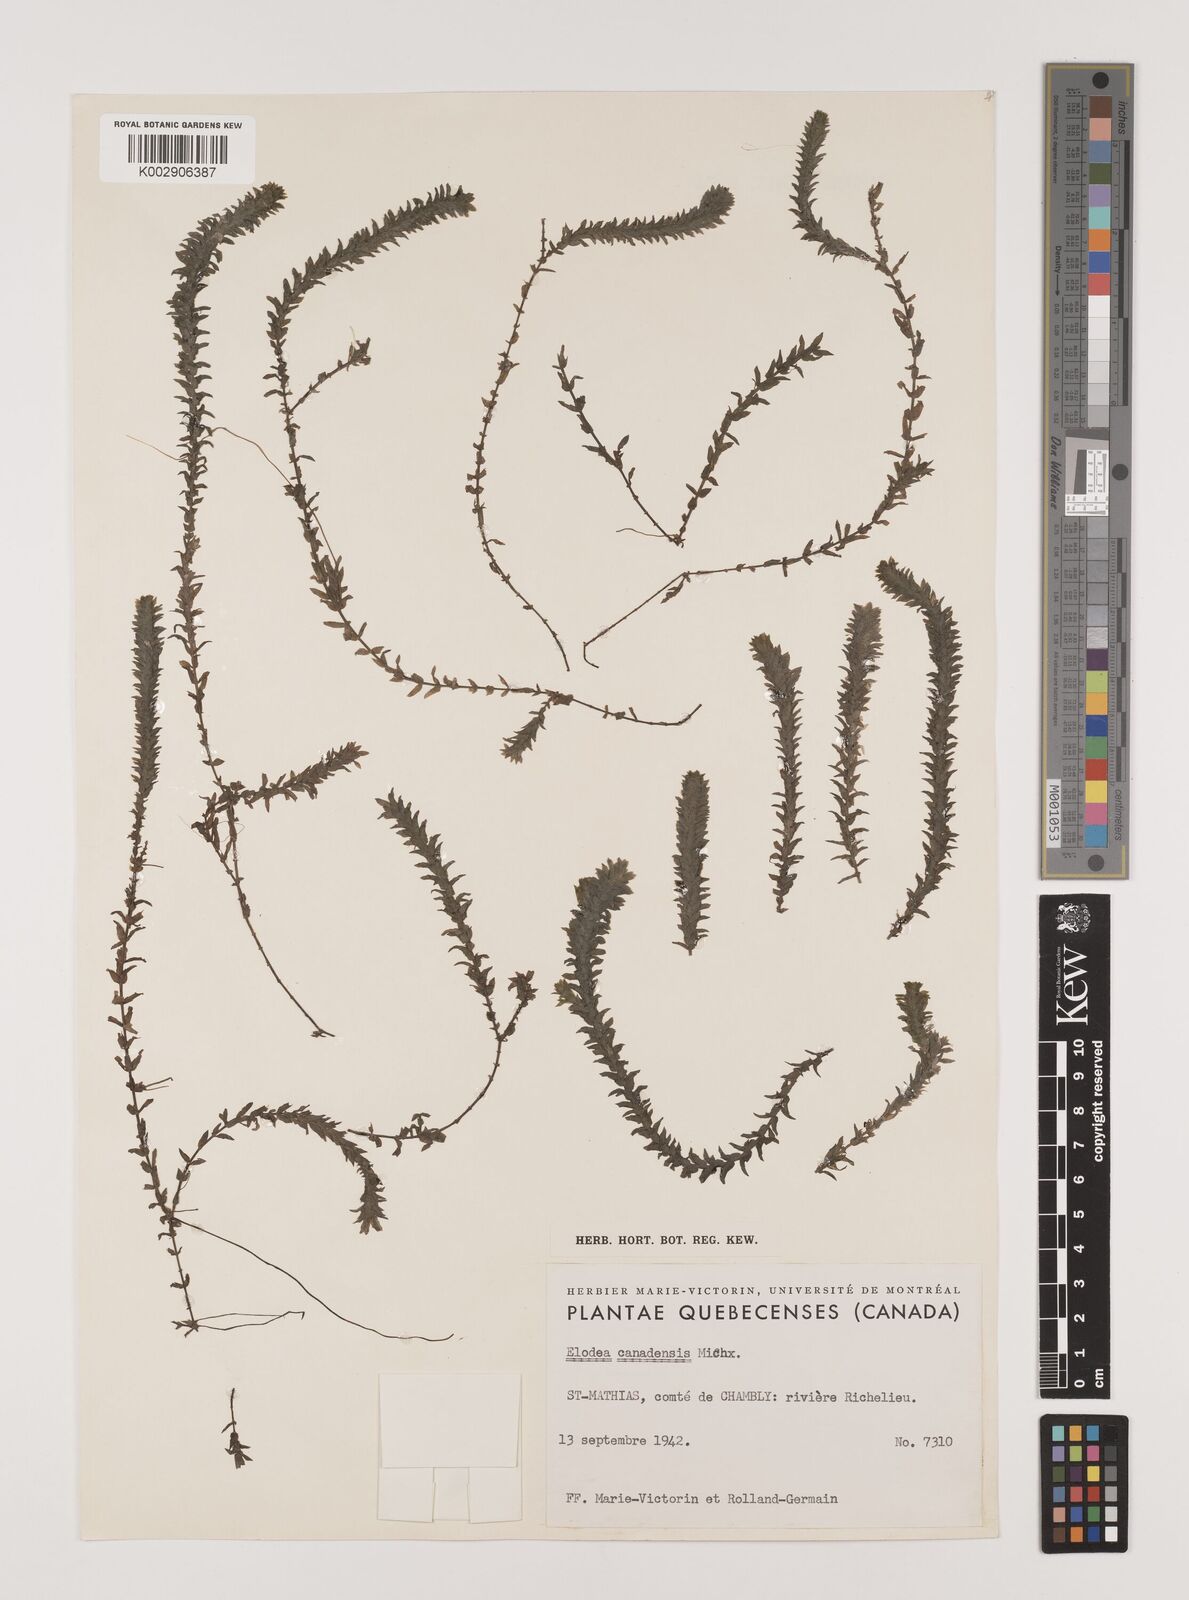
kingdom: Plantae
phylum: Tracheophyta
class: Liliopsida
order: Alismatales
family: Hydrocharitaceae
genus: Elodea
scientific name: Elodea canadensis
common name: Canadian waterweed
